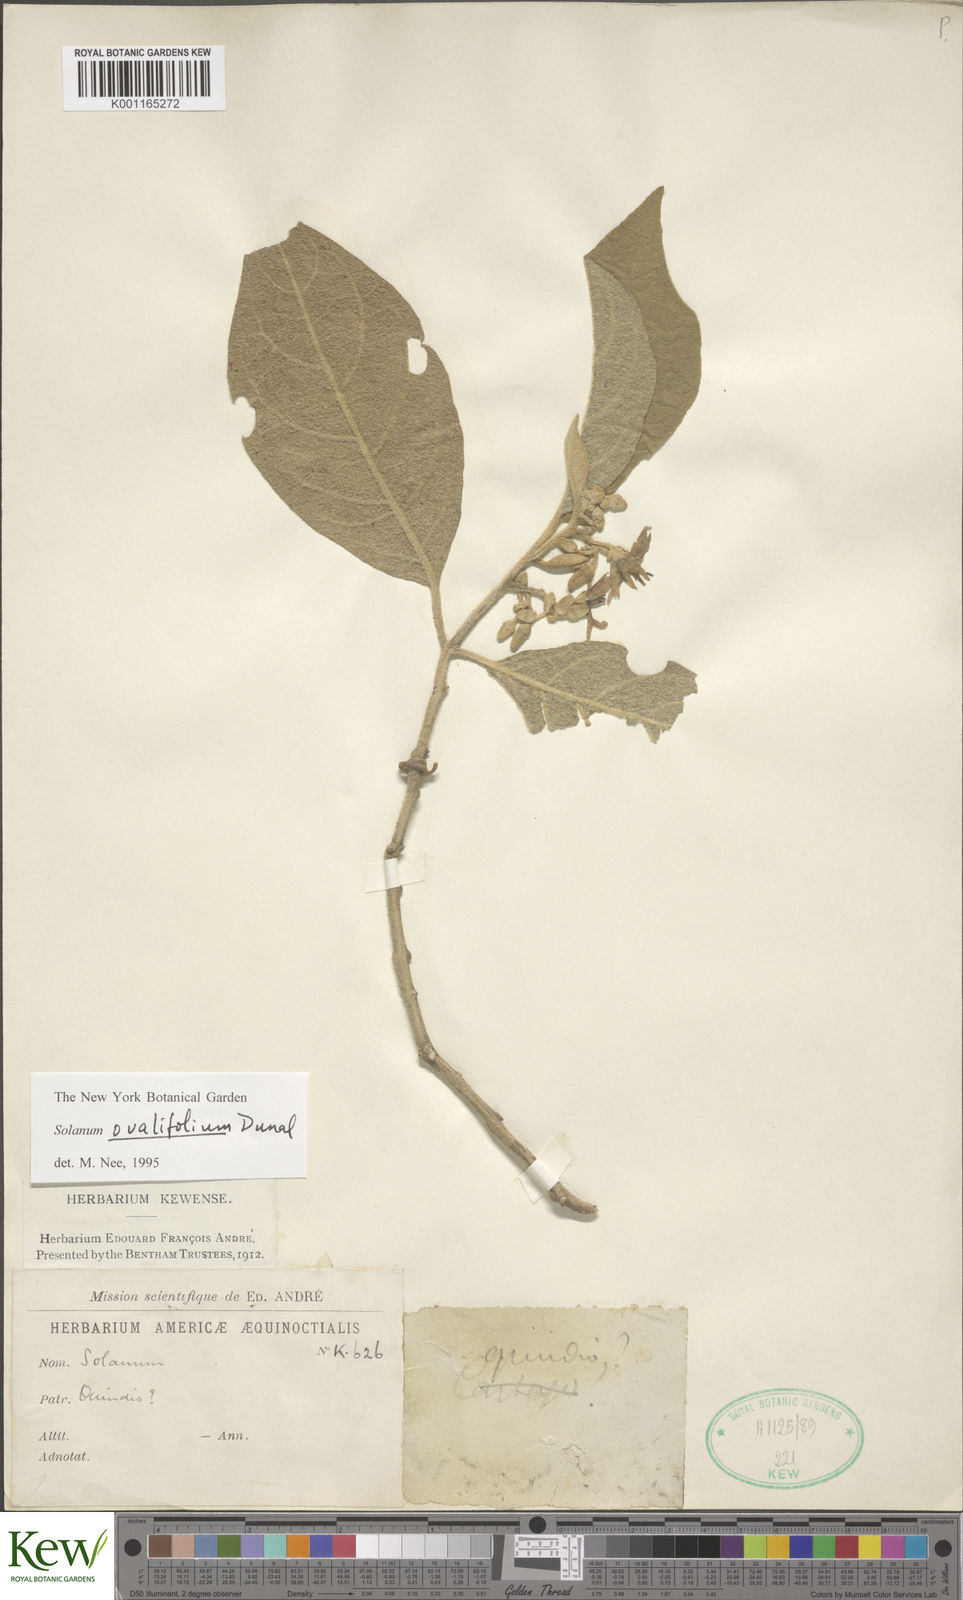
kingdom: Plantae
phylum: Tracheophyta
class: Magnoliopsida
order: Solanales
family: Solanaceae
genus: Solanum
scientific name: Solanum ovalifolium
